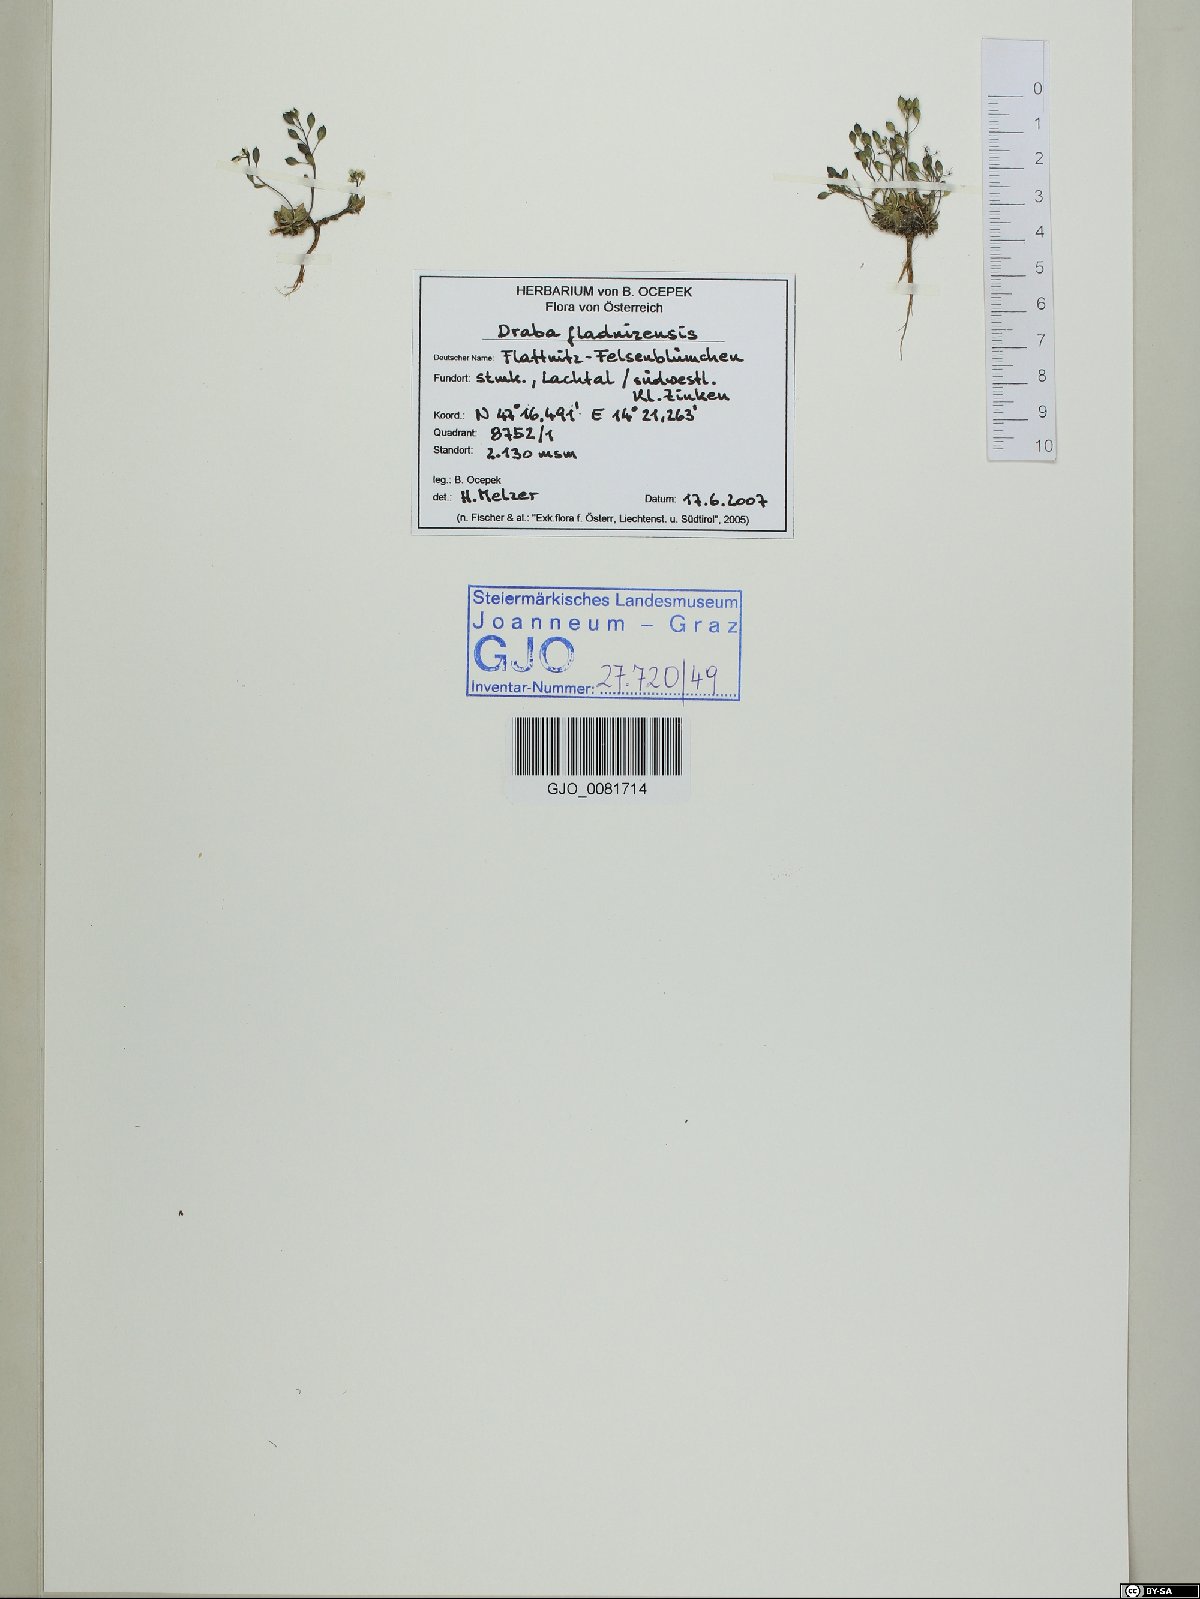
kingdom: Plantae
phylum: Tracheophyta
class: Magnoliopsida
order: Brassicales
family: Brassicaceae
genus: Draba
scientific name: Draba fladnizensis
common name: Austrian draba
